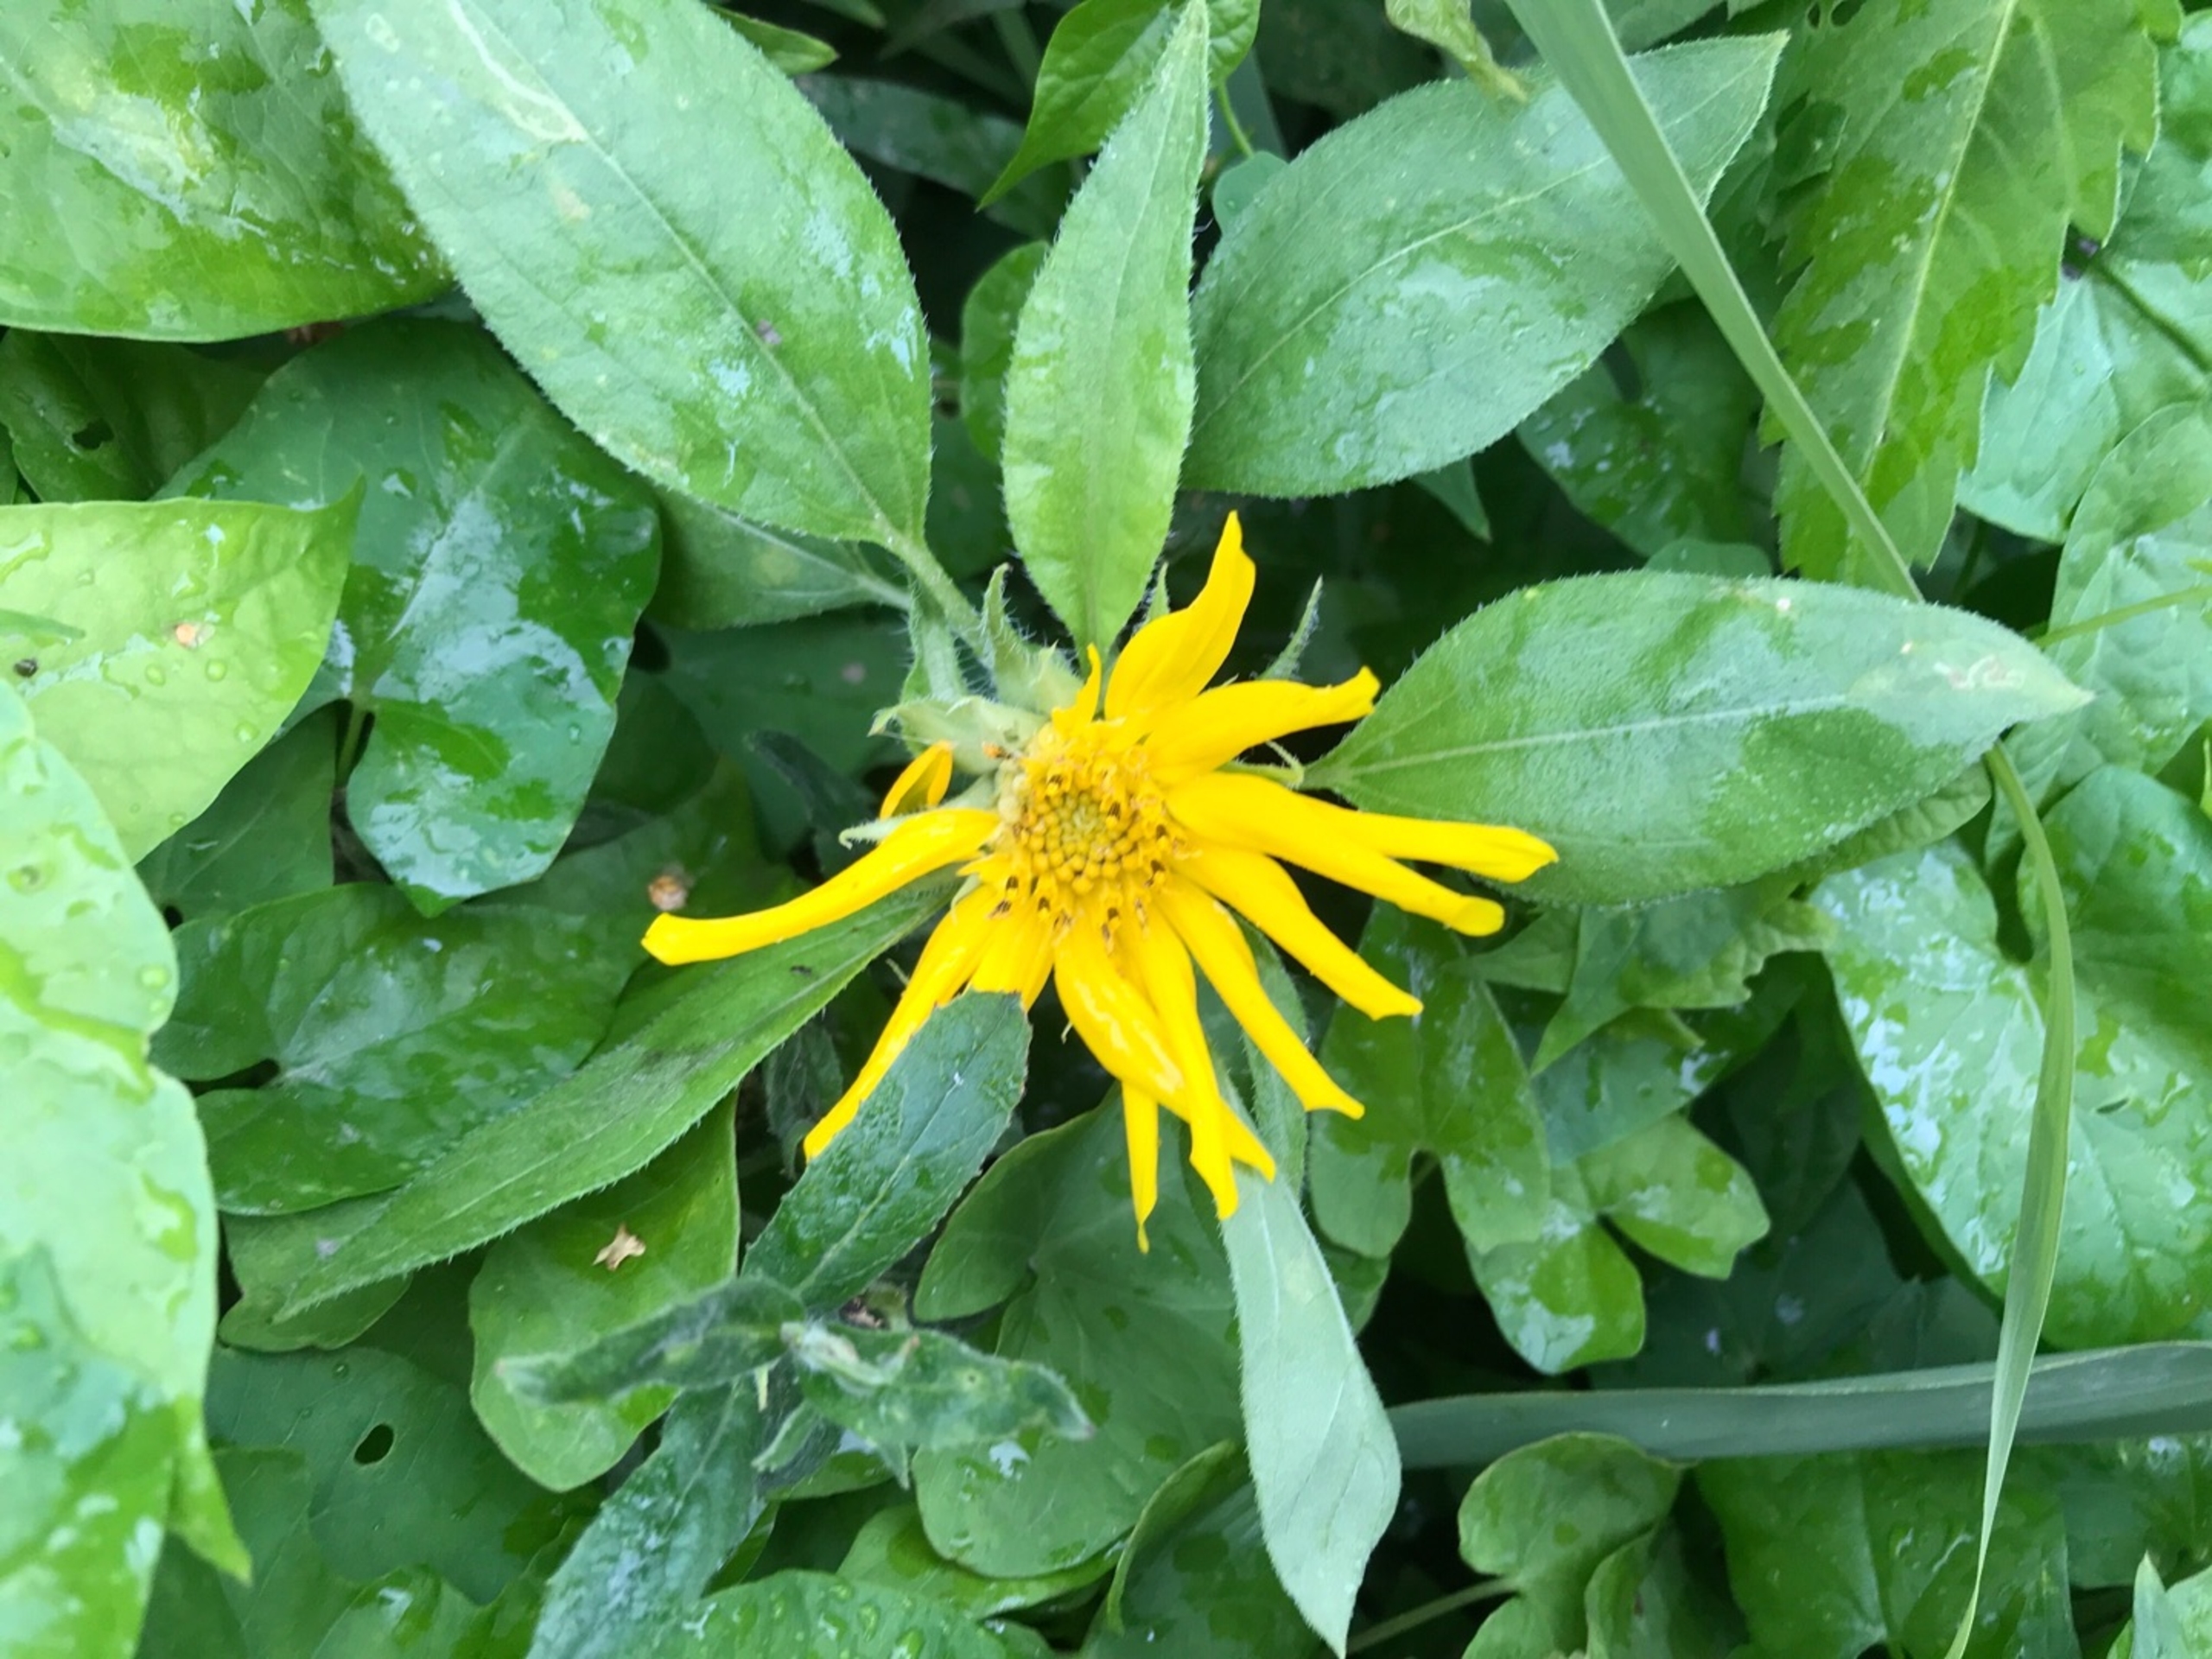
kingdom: Plantae
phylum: Tracheophyta
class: Magnoliopsida
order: Asterales
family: Asteraceae
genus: Helianthus
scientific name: Helianthus tuberosus
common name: Jordskok
